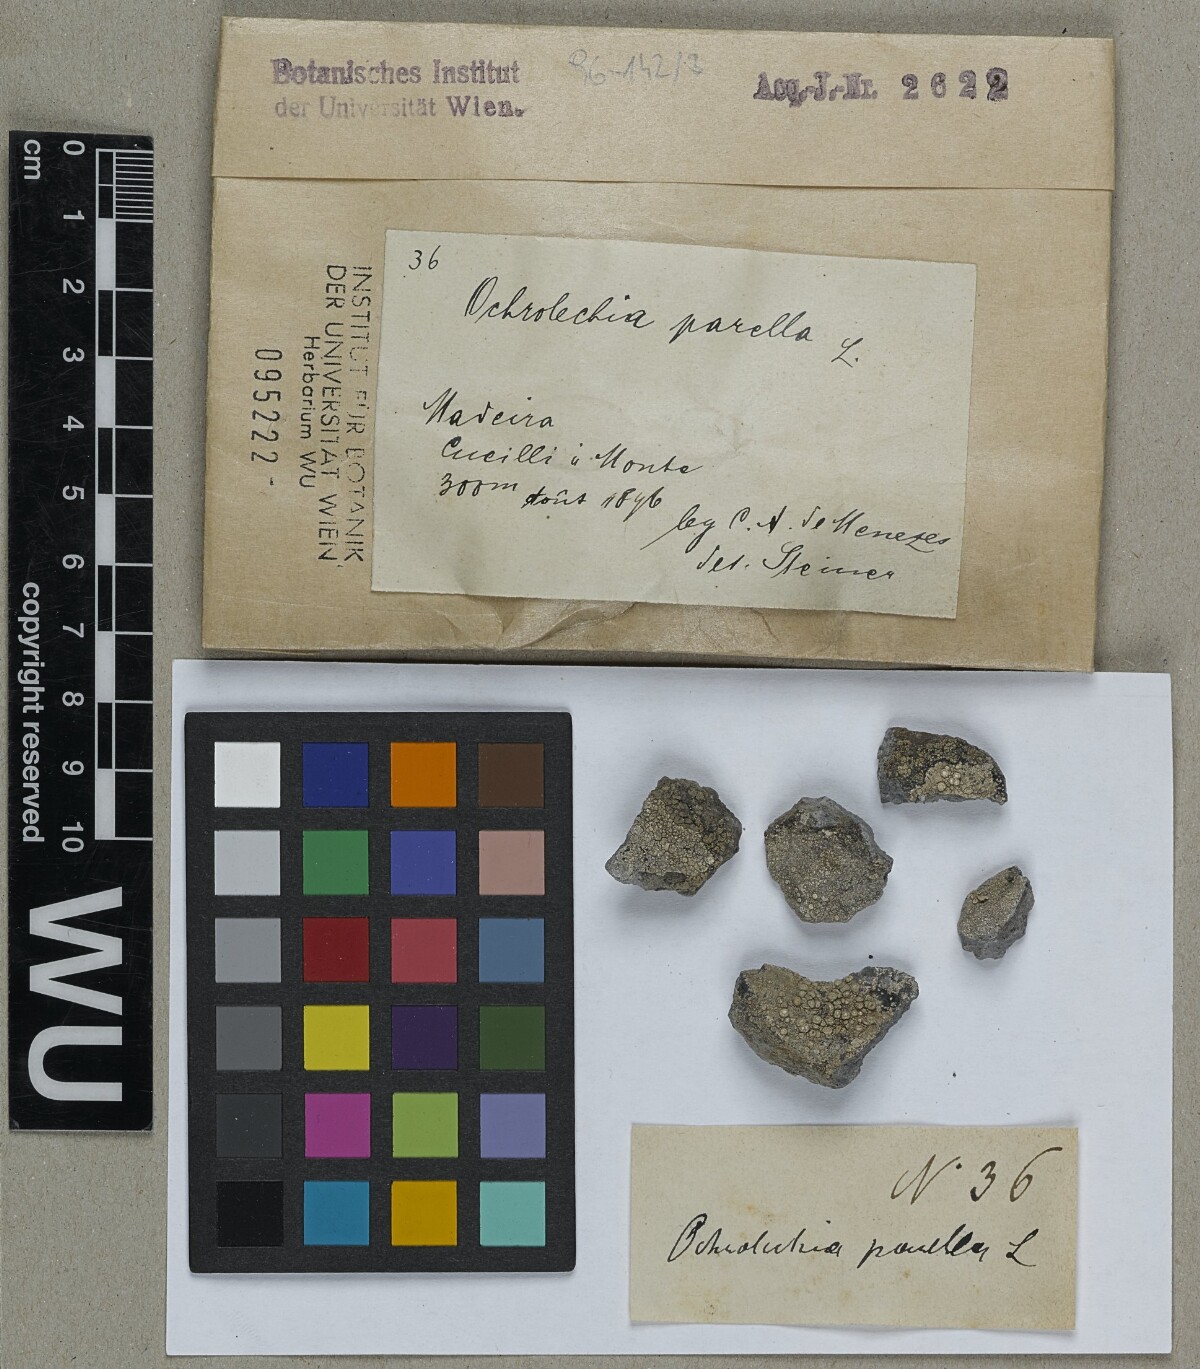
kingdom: Fungi
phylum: Ascomycota
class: Lecanoromycetes
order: Pertusariales
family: Ochrolechiaceae
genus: Ochrolechia
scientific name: Ochrolechia parella
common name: Crab's eye lichen
